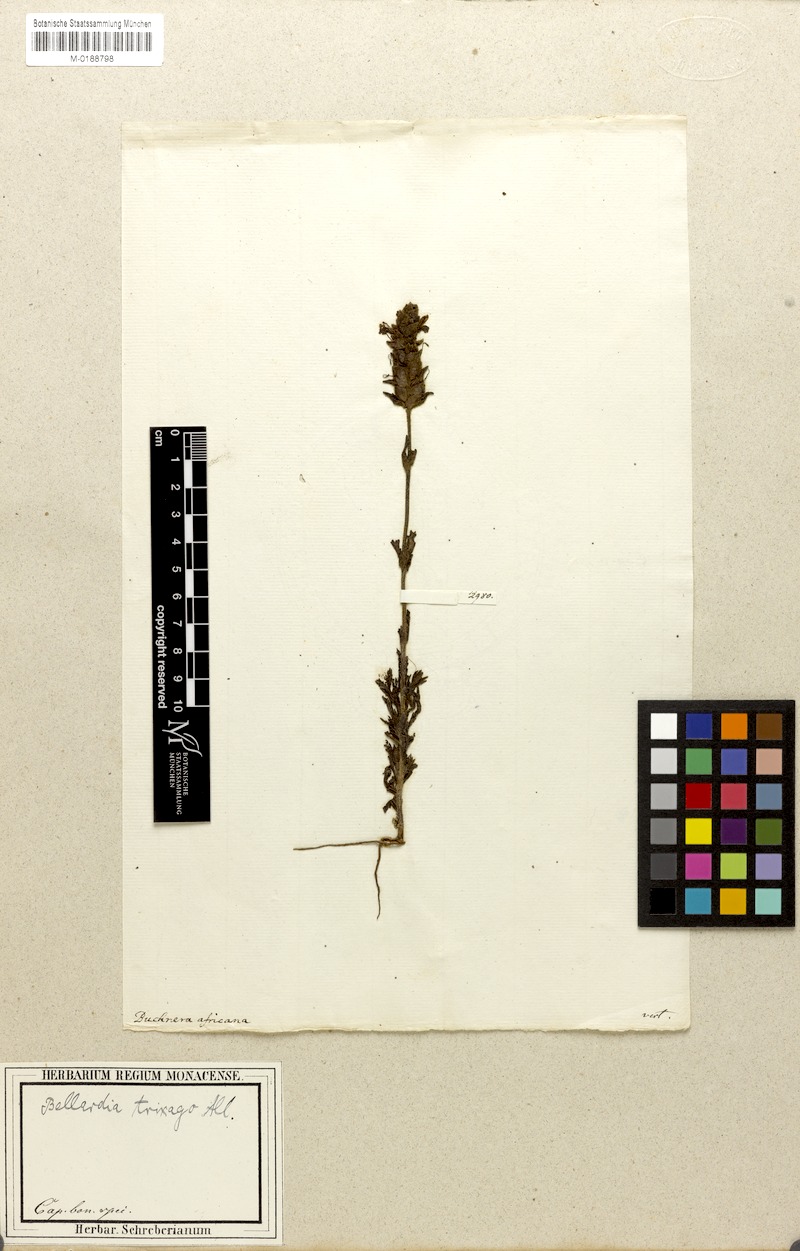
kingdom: Plantae
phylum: Tracheophyta
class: Magnoliopsida
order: Lamiales
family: Orobanchaceae
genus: Bellardia
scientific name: Bellardia trixago
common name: Mediterranean lineseed
